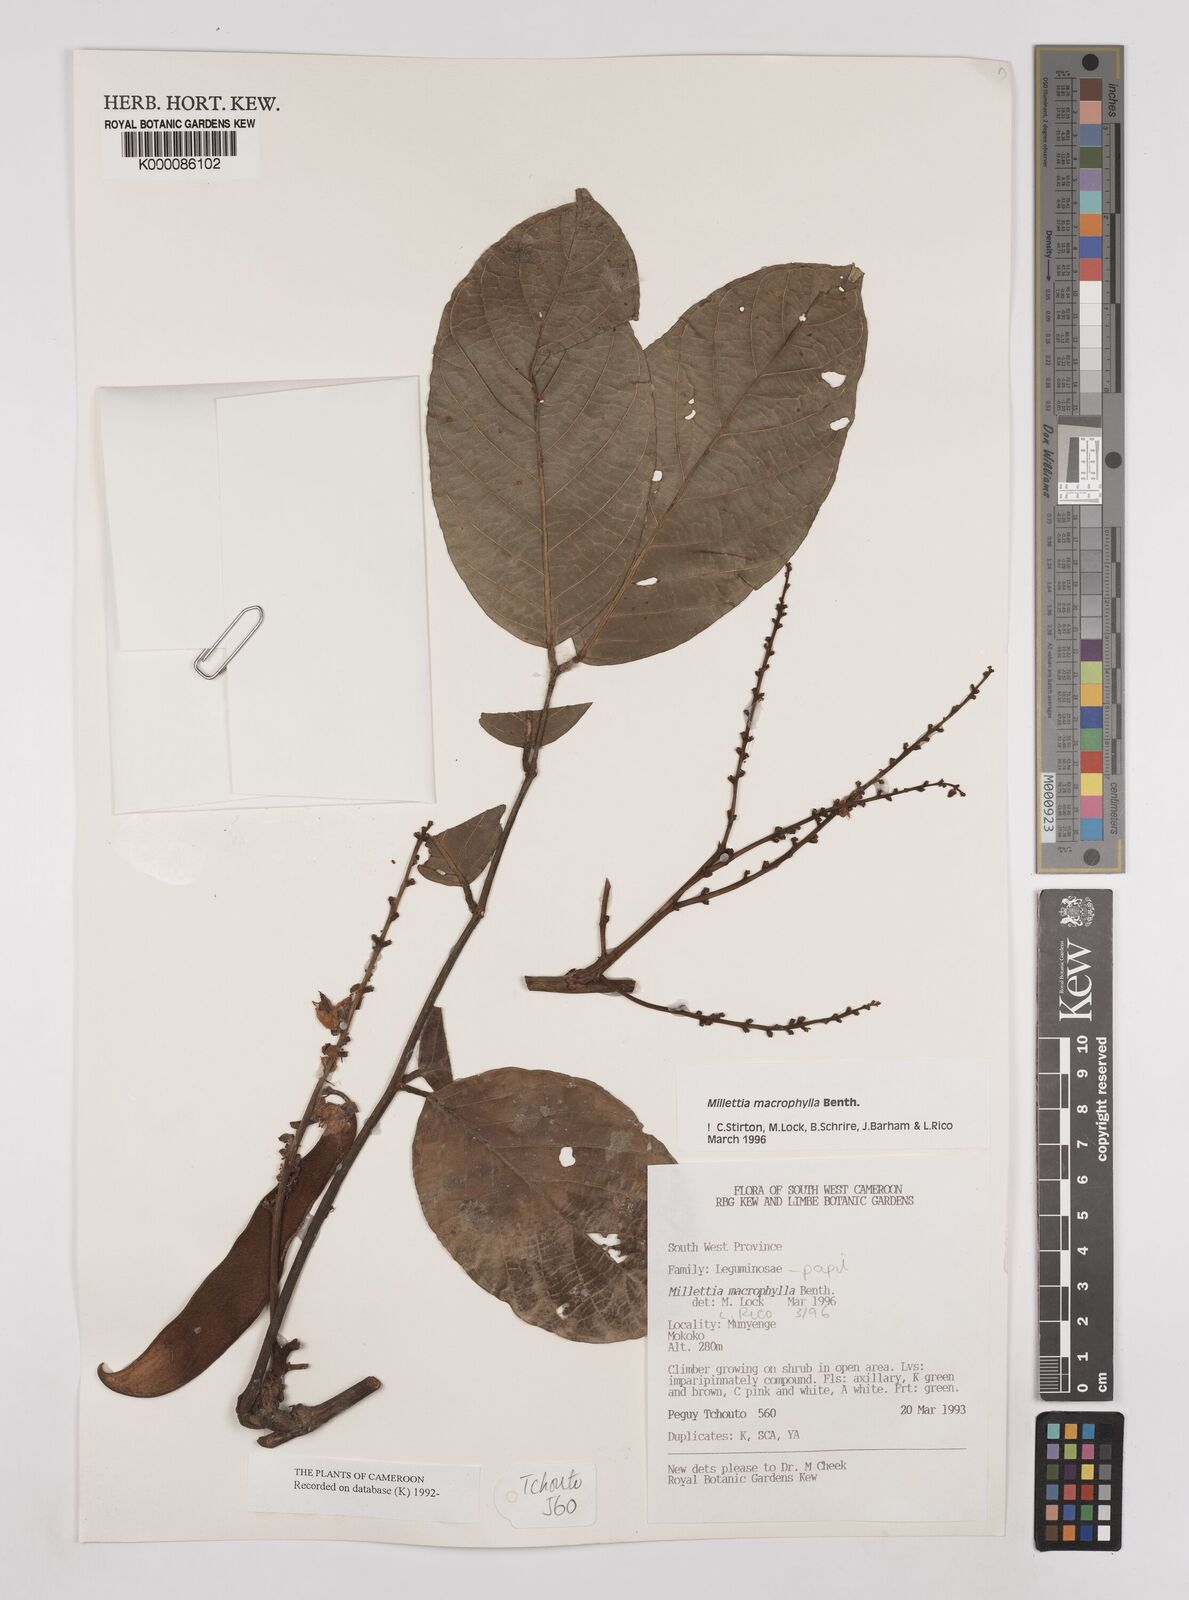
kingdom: Plantae
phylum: Tracheophyta
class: Magnoliopsida
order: Fabales
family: Fabaceae
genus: Millettia
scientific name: Millettia macrophylla
